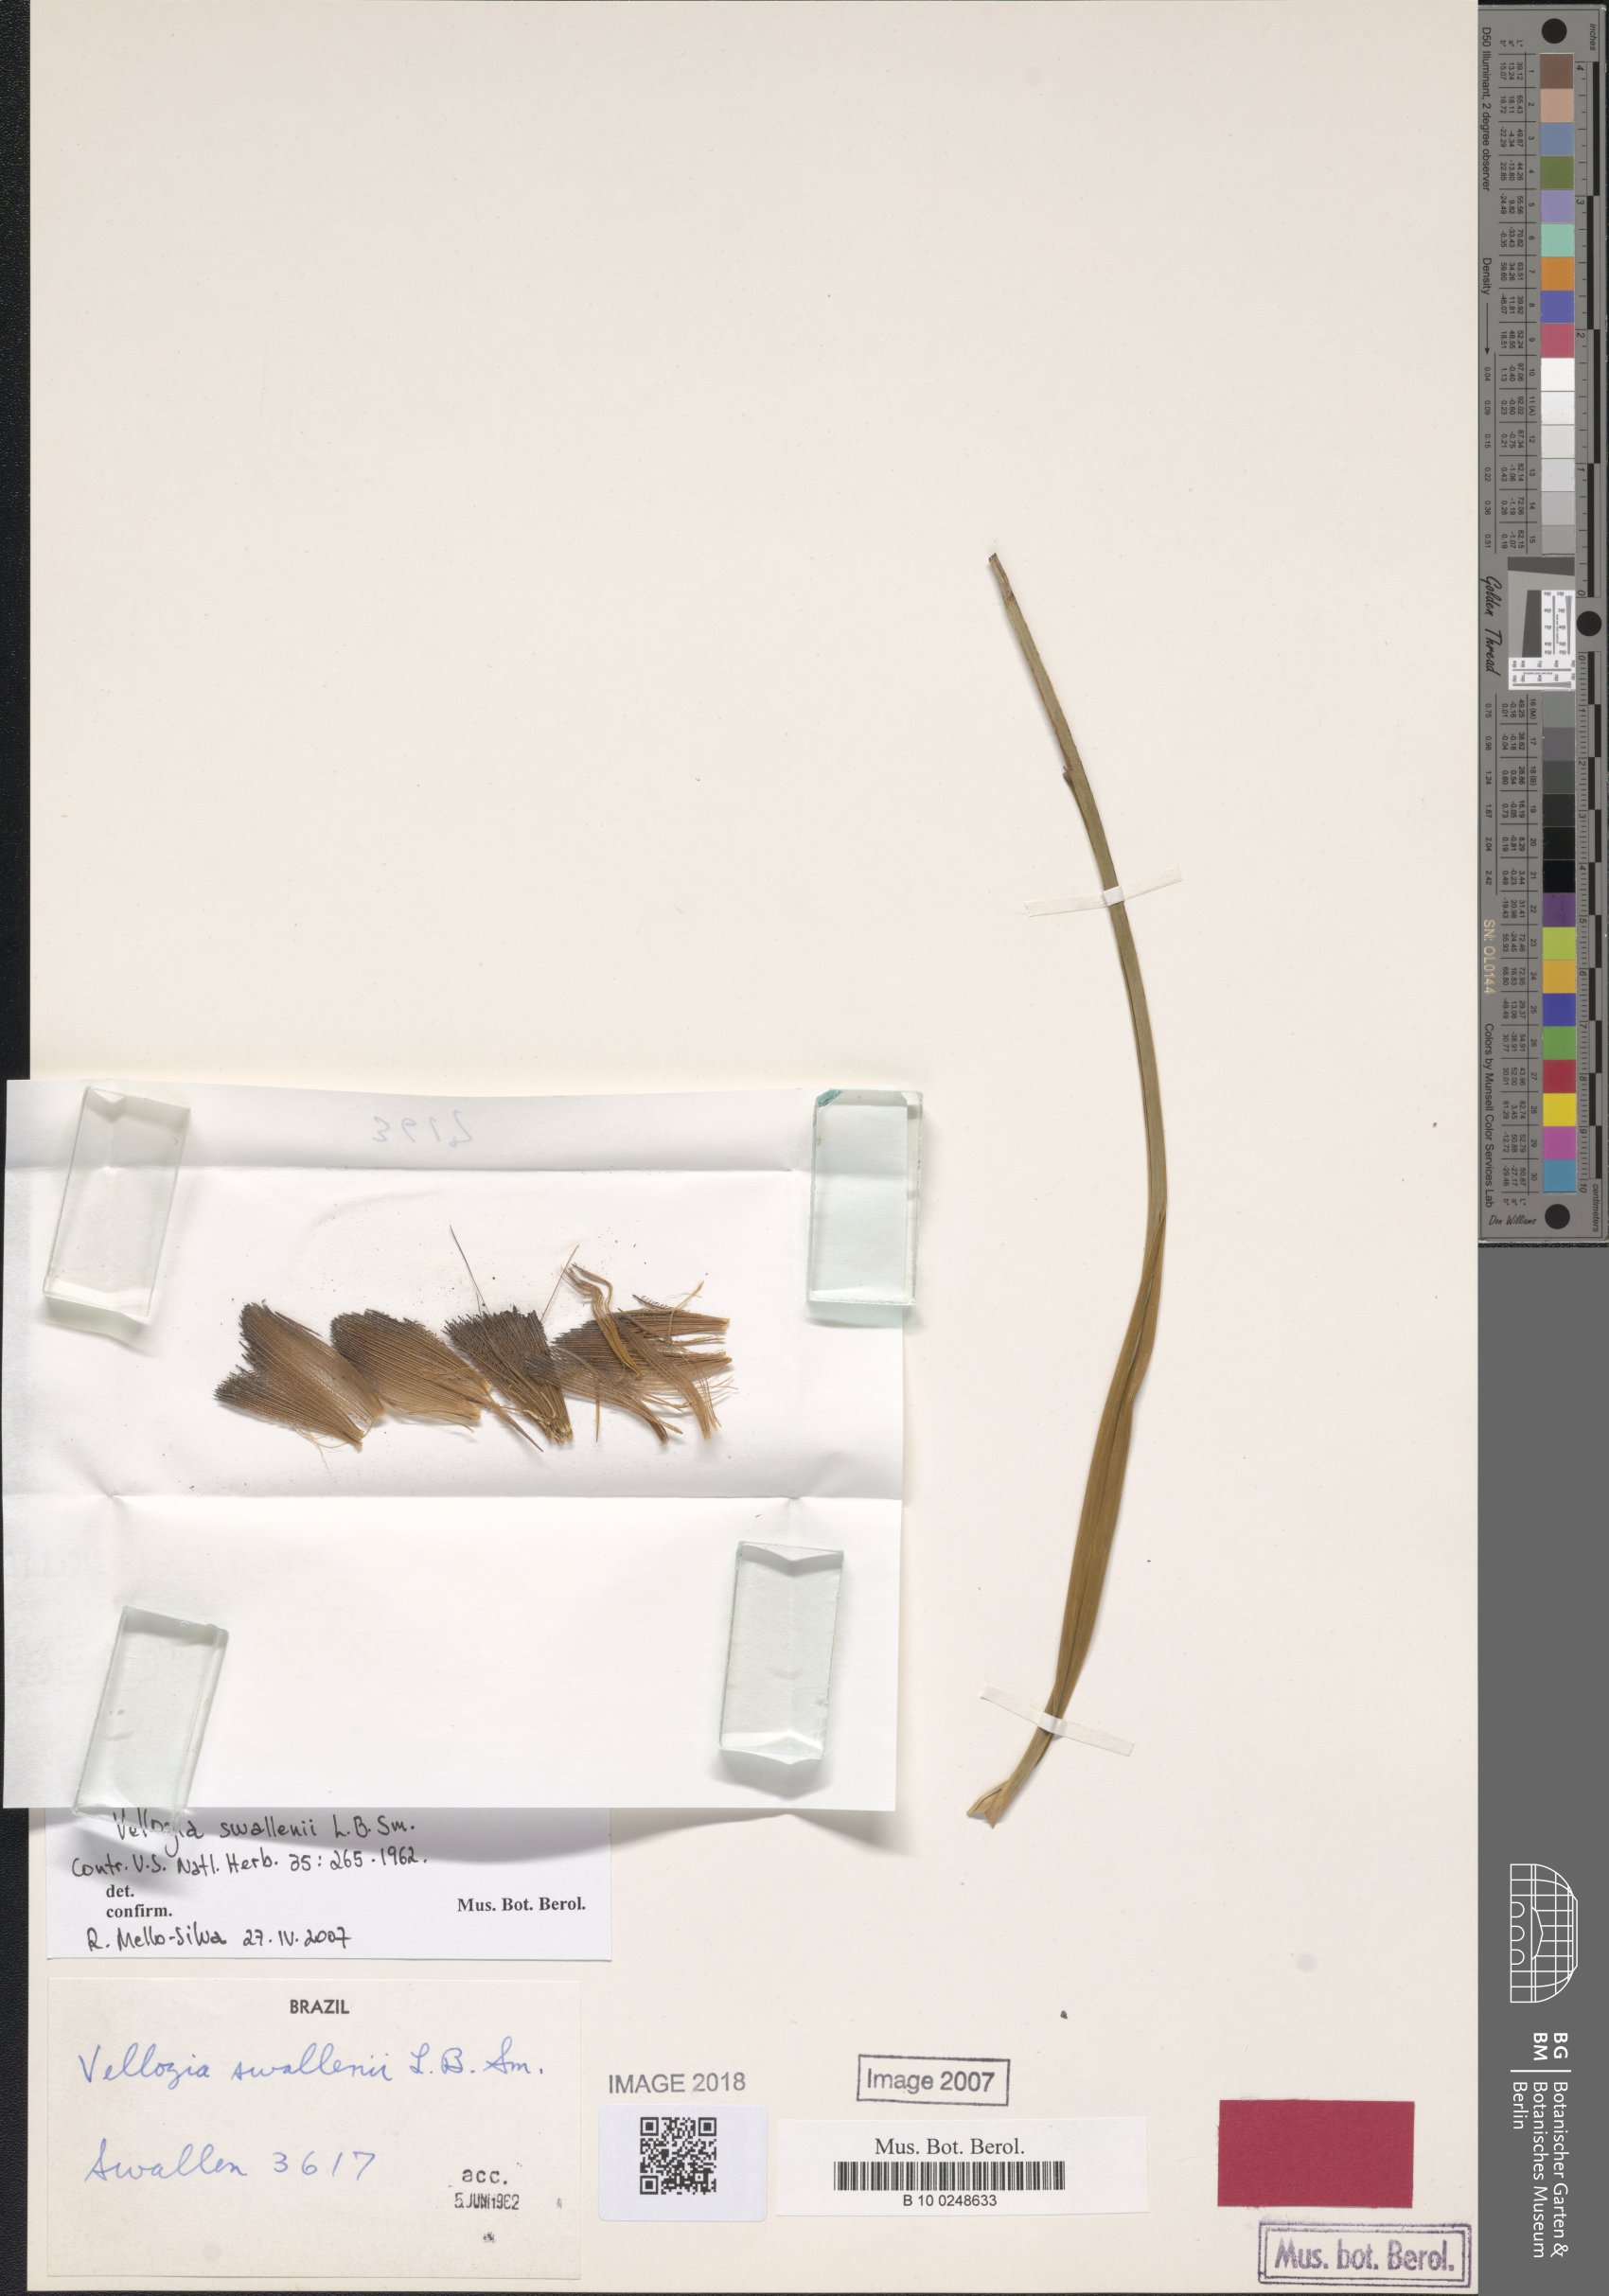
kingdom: Plantae
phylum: Tracheophyta
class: Liliopsida
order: Pandanales
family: Velloziaceae
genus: Vellozia
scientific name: Vellozia swallenii
